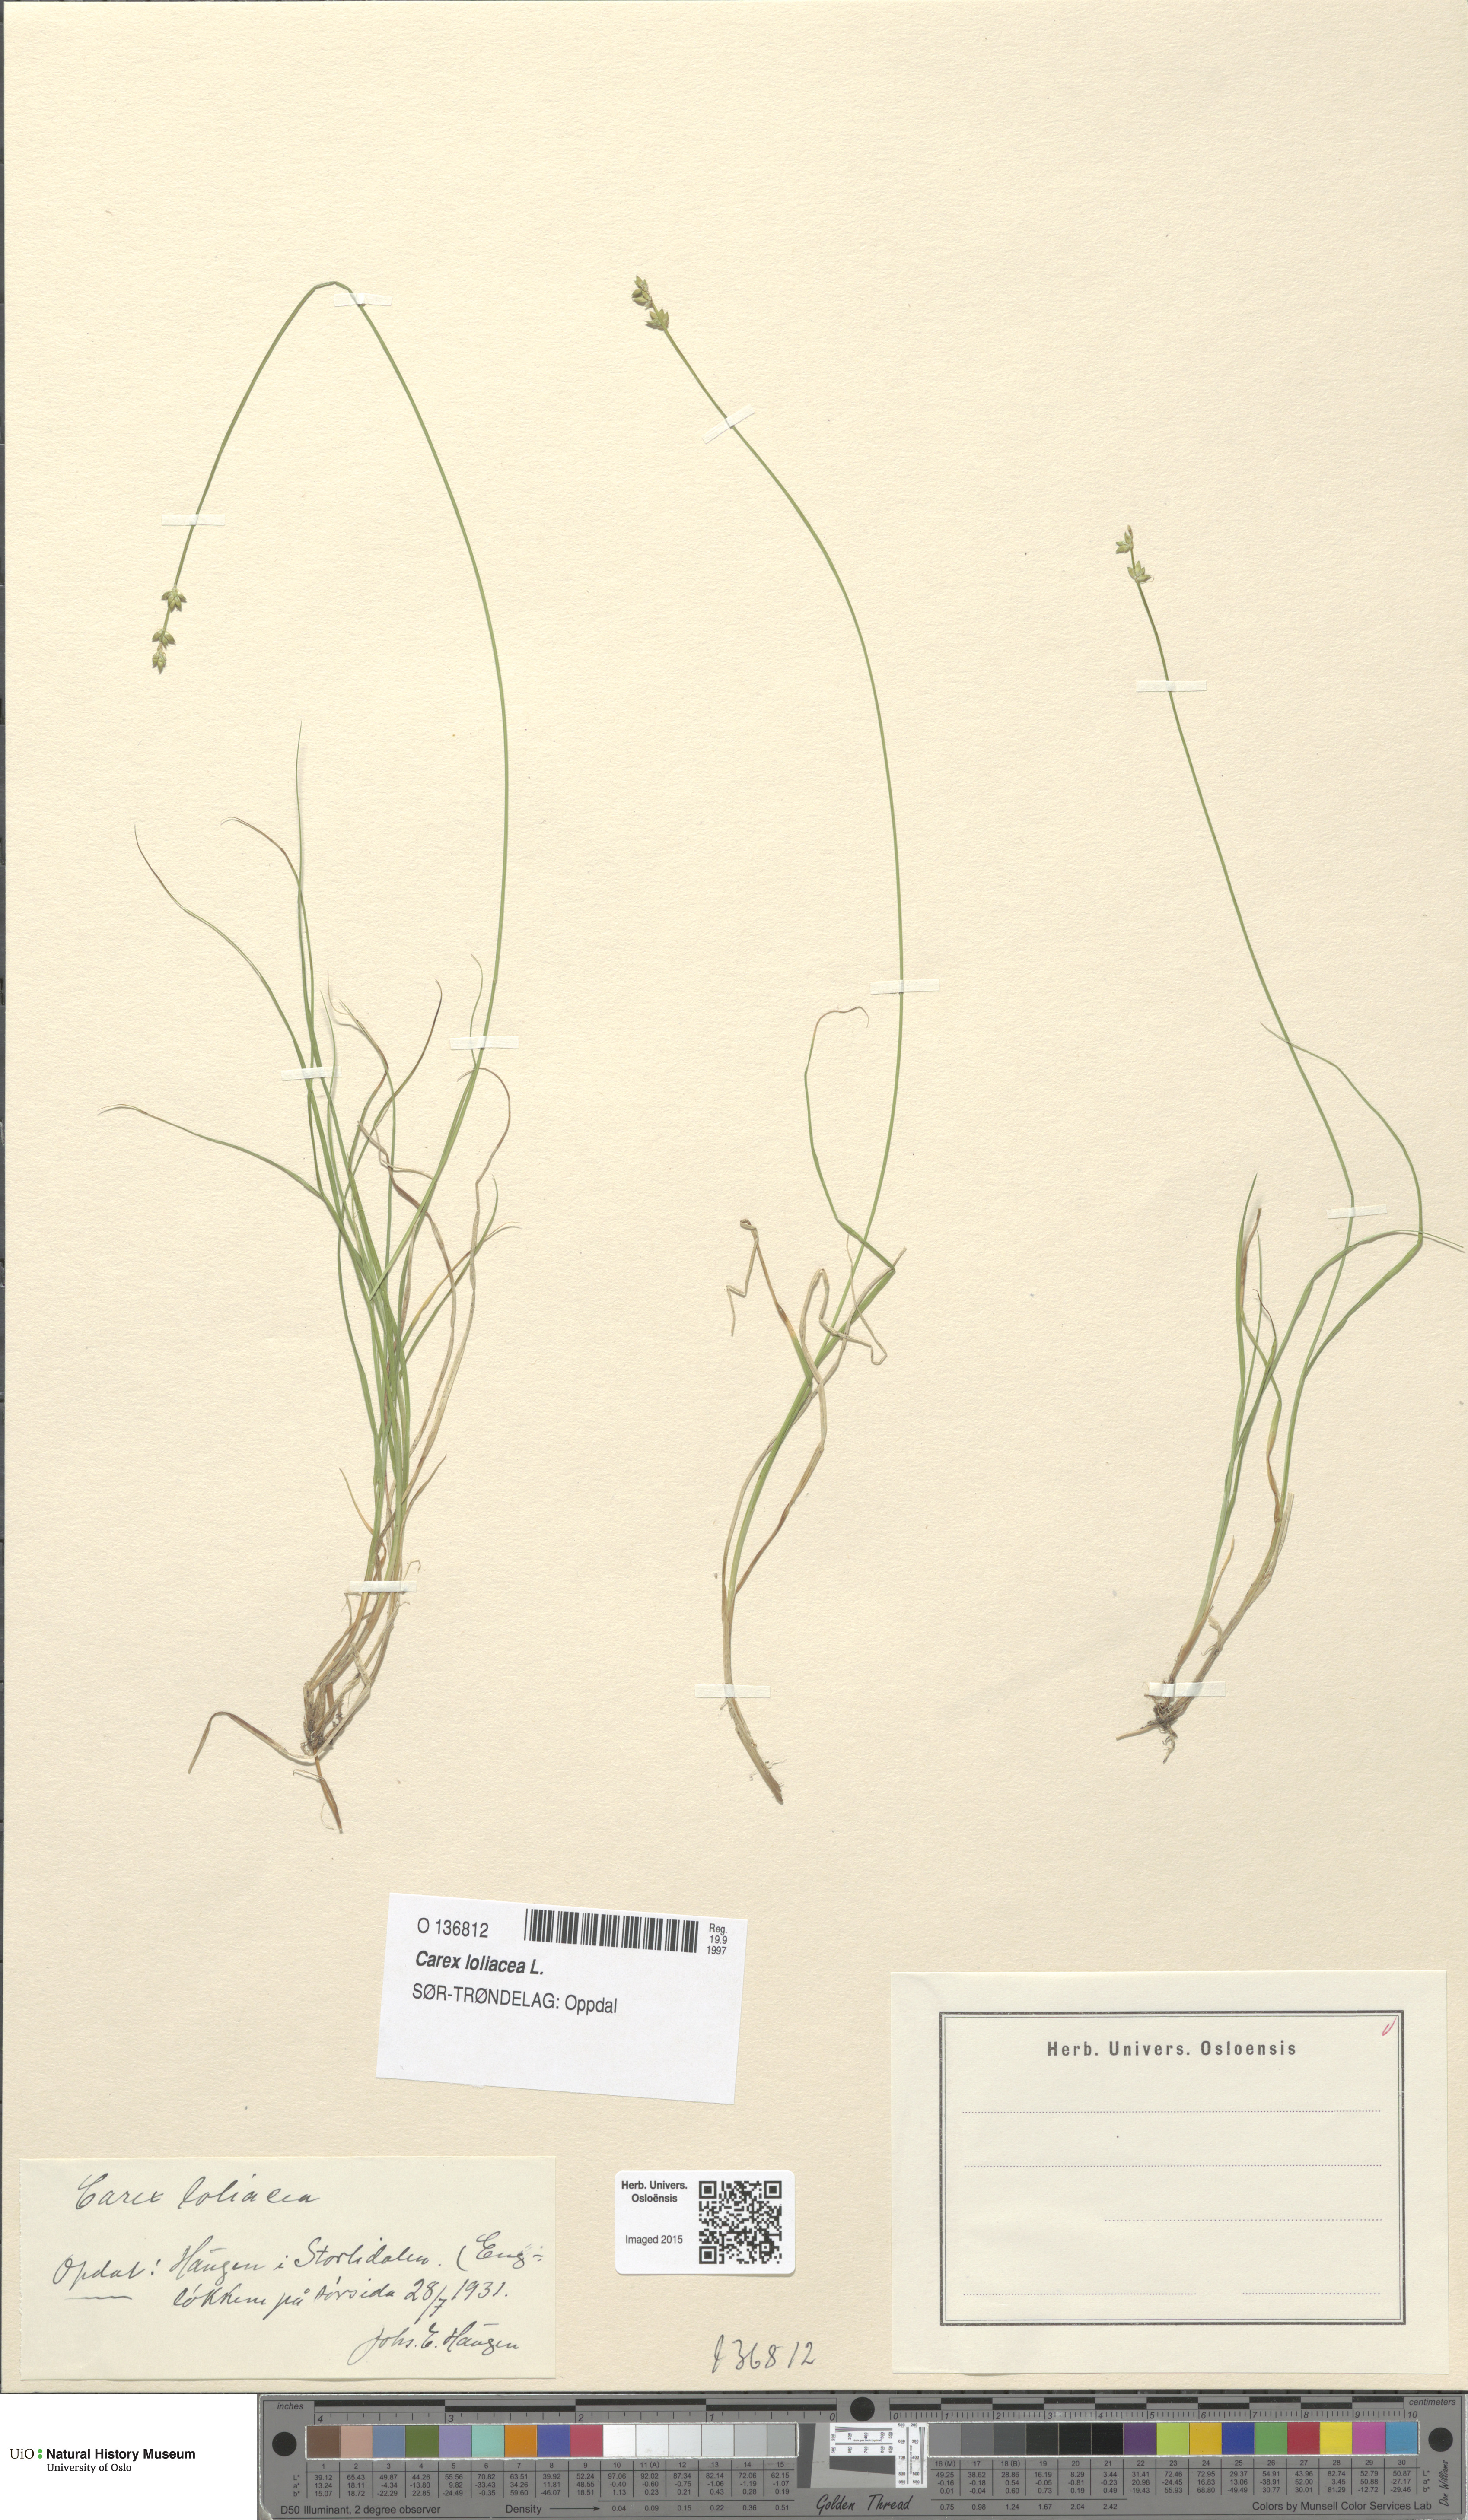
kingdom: Plantae
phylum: Tracheophyta
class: Liliopsida
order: Poales
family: Cyperaceae
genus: Carex
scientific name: Carex loliacea
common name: Ryegrass sedge
